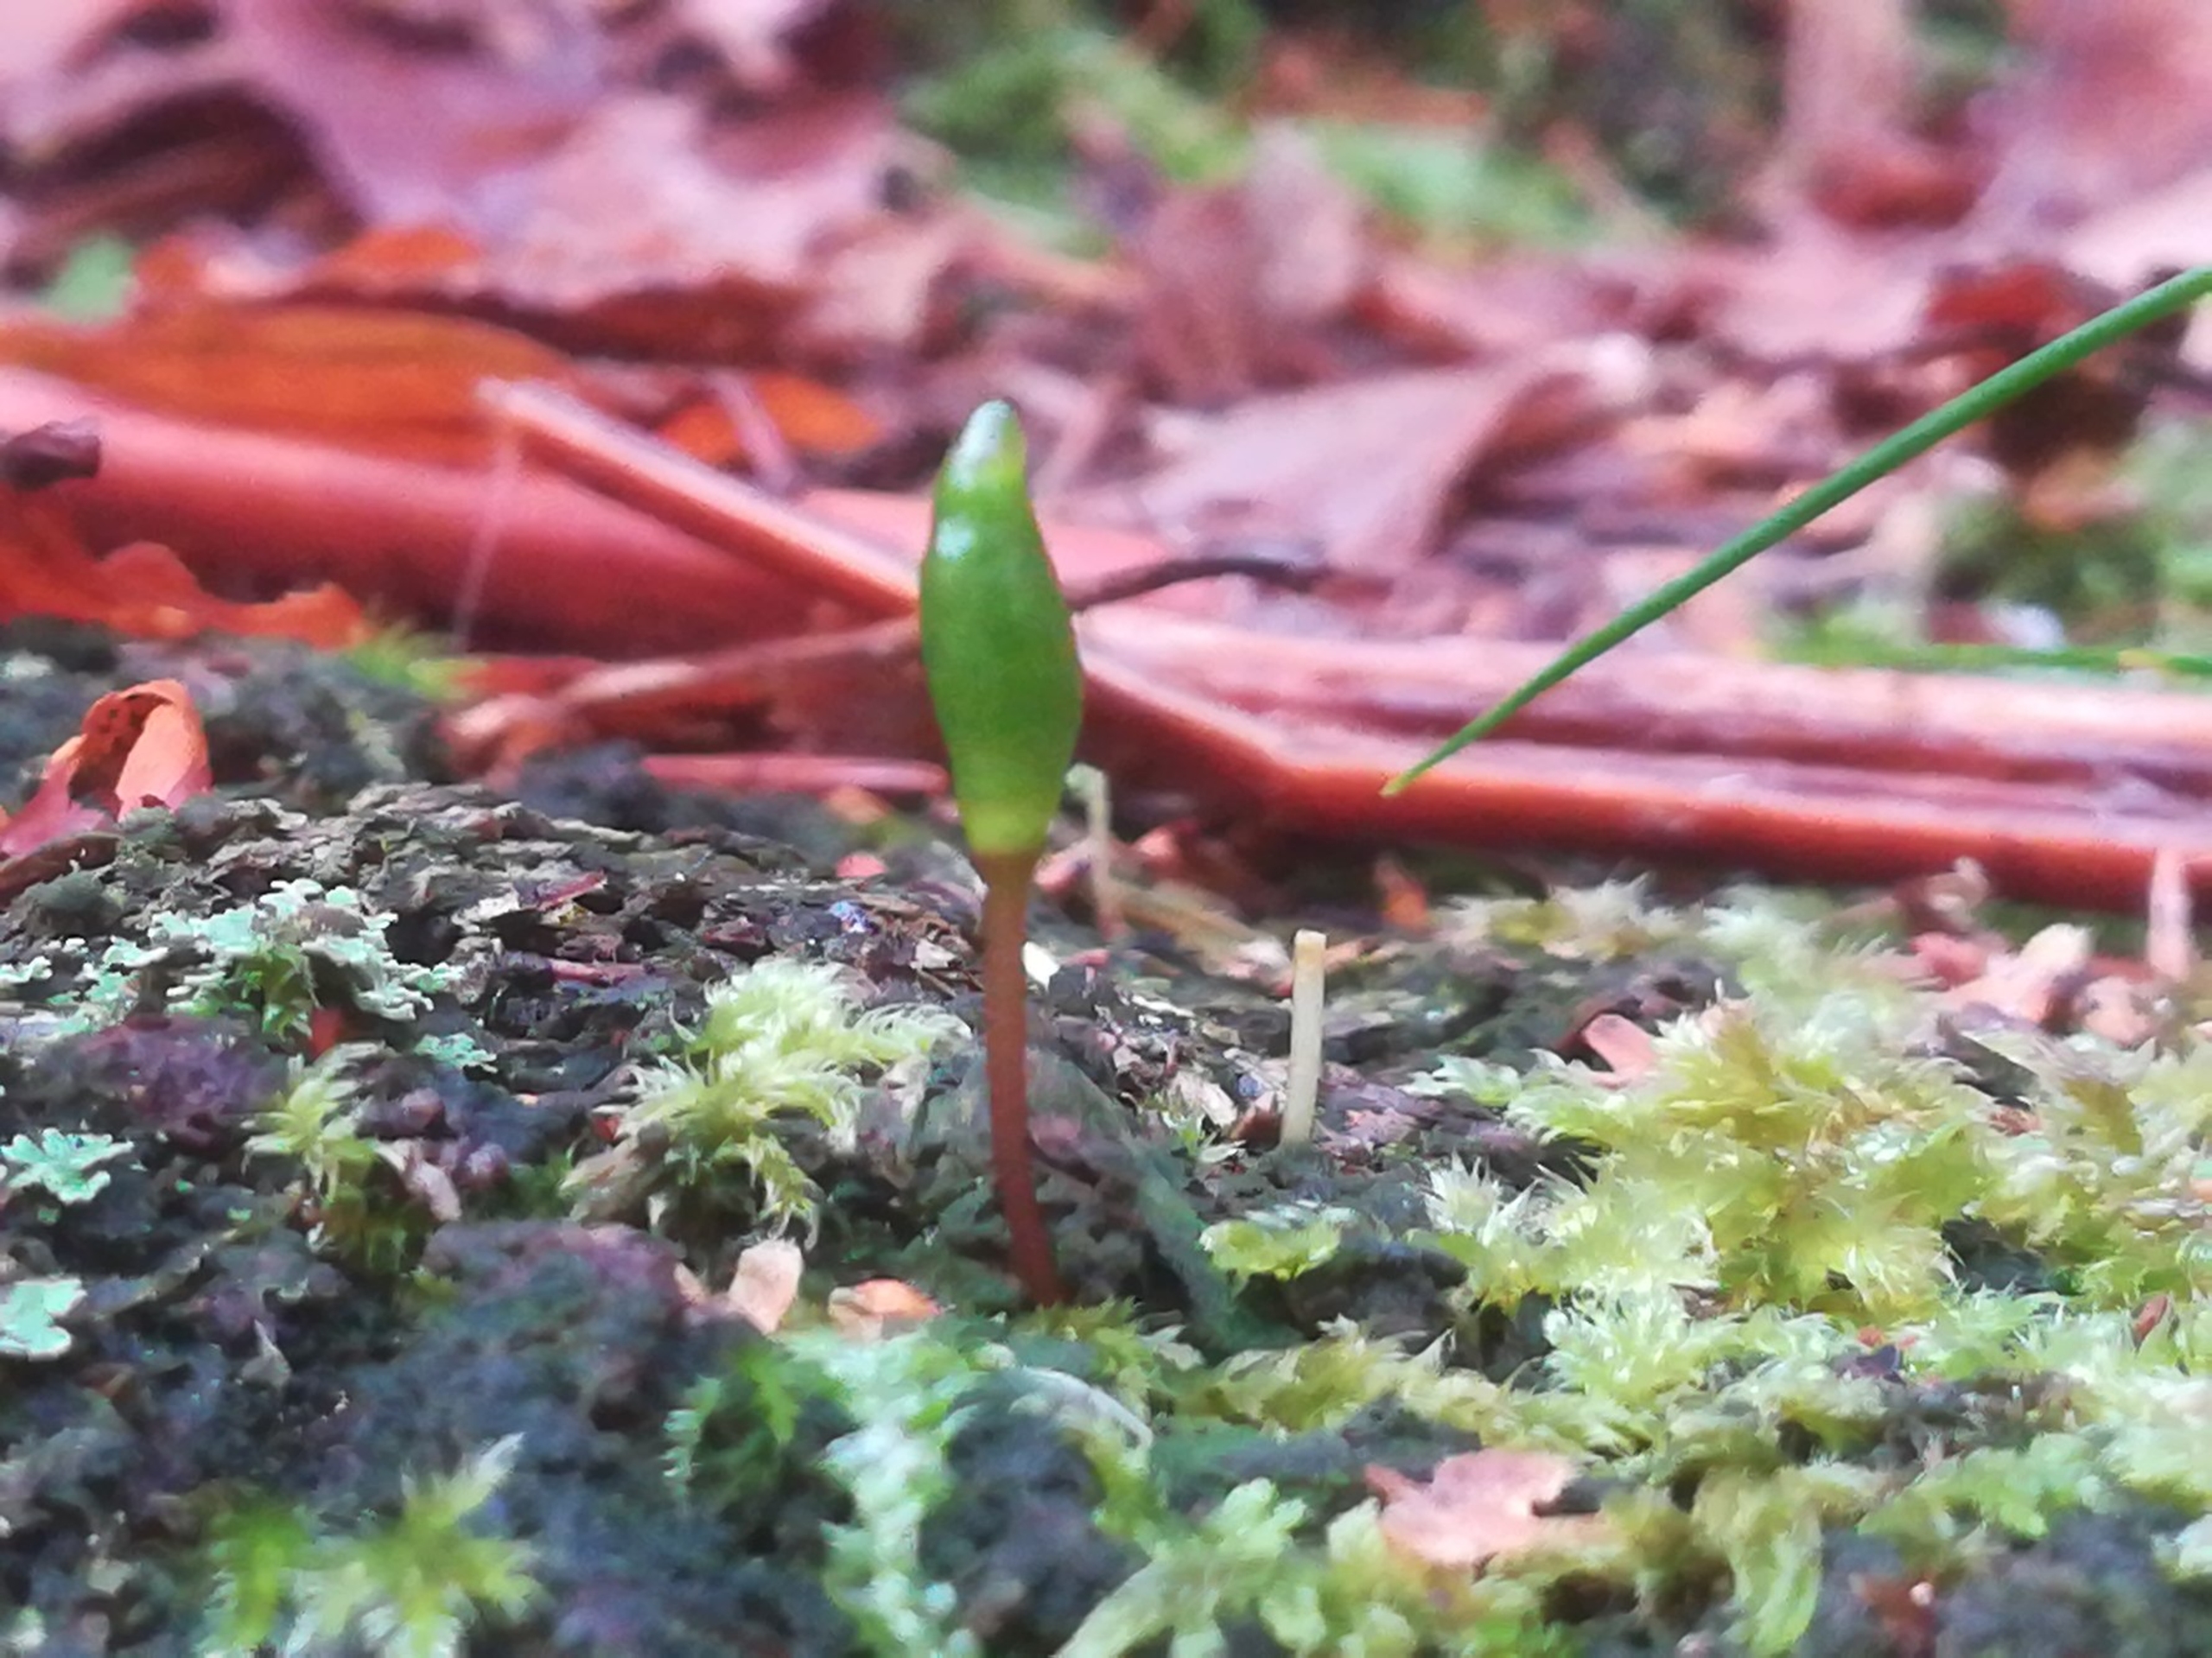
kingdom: Plantae
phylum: Bryophyta
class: Bryopsida
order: Buxbaumiales
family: Buxbaumiaceae
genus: Buxbaumia
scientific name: Buxbaumia viridis
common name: Grøn buxbaumia
